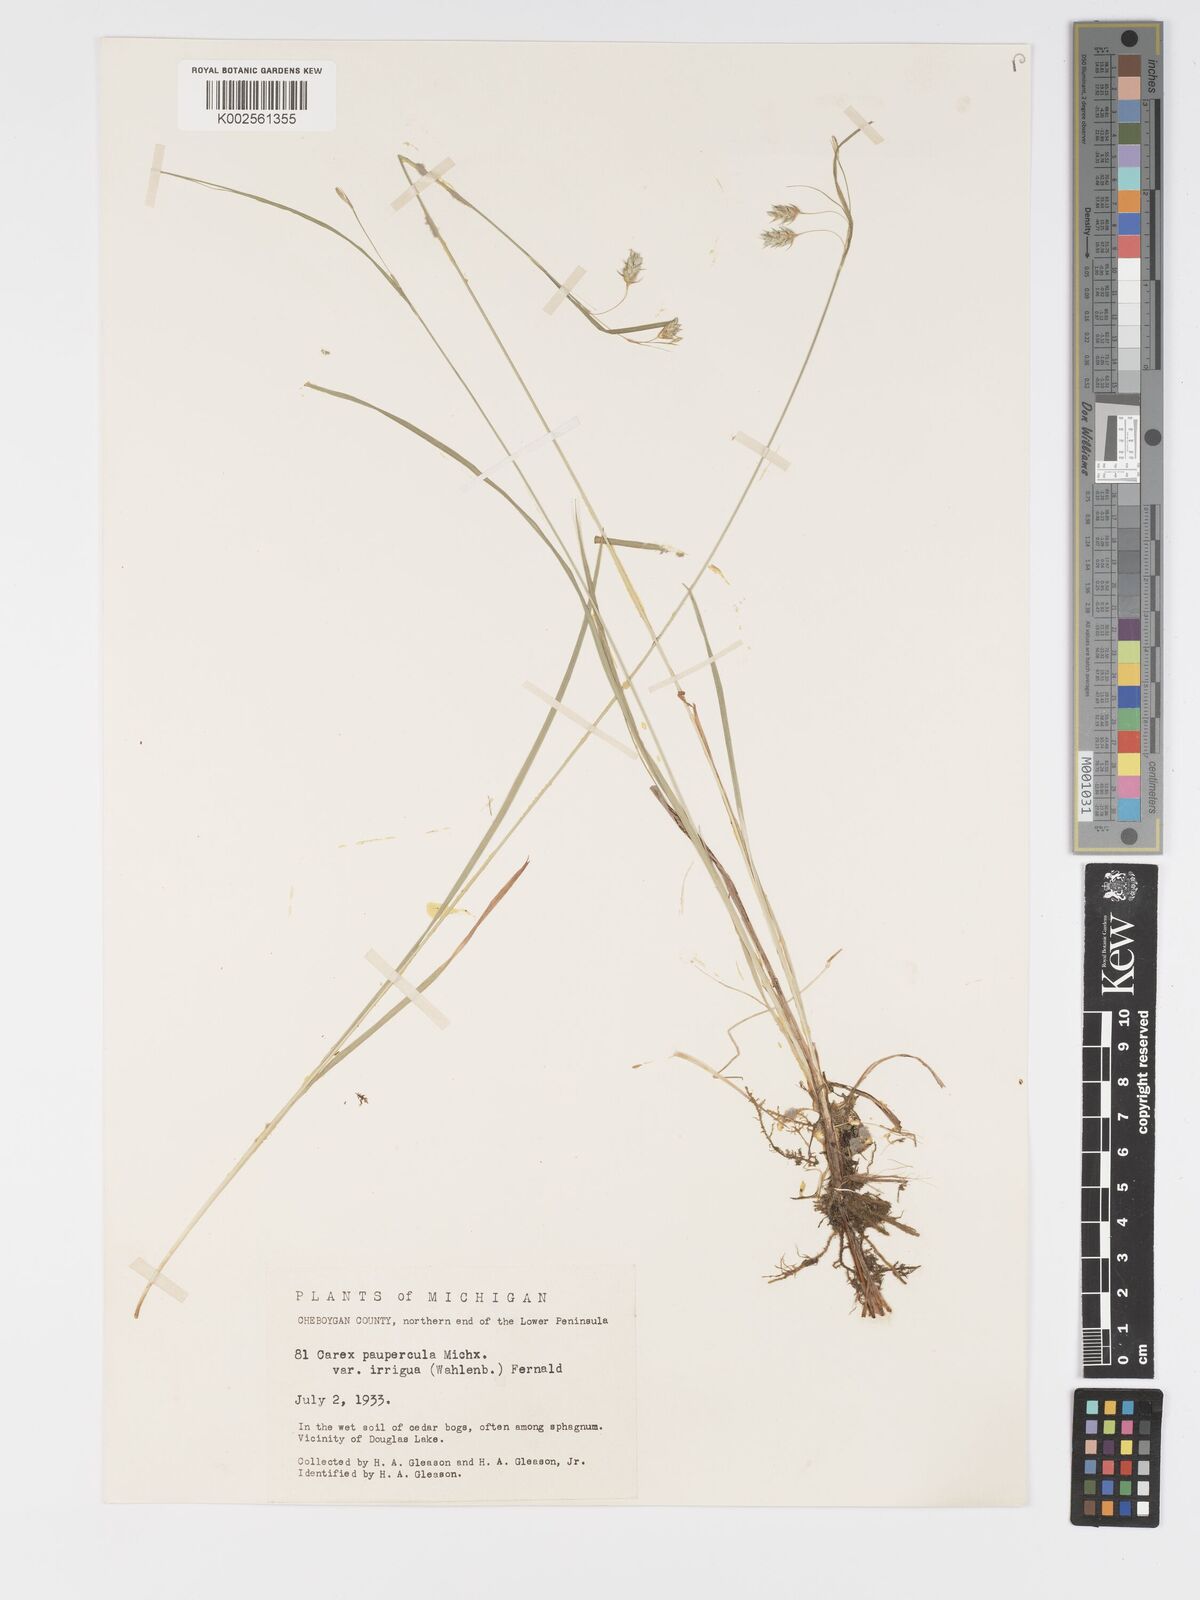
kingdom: Plantae
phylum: Tracheophyta
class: Liliopsida
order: Poales
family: Cyperaceae
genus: Carex
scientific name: Carex magellanica
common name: Bog sedge
